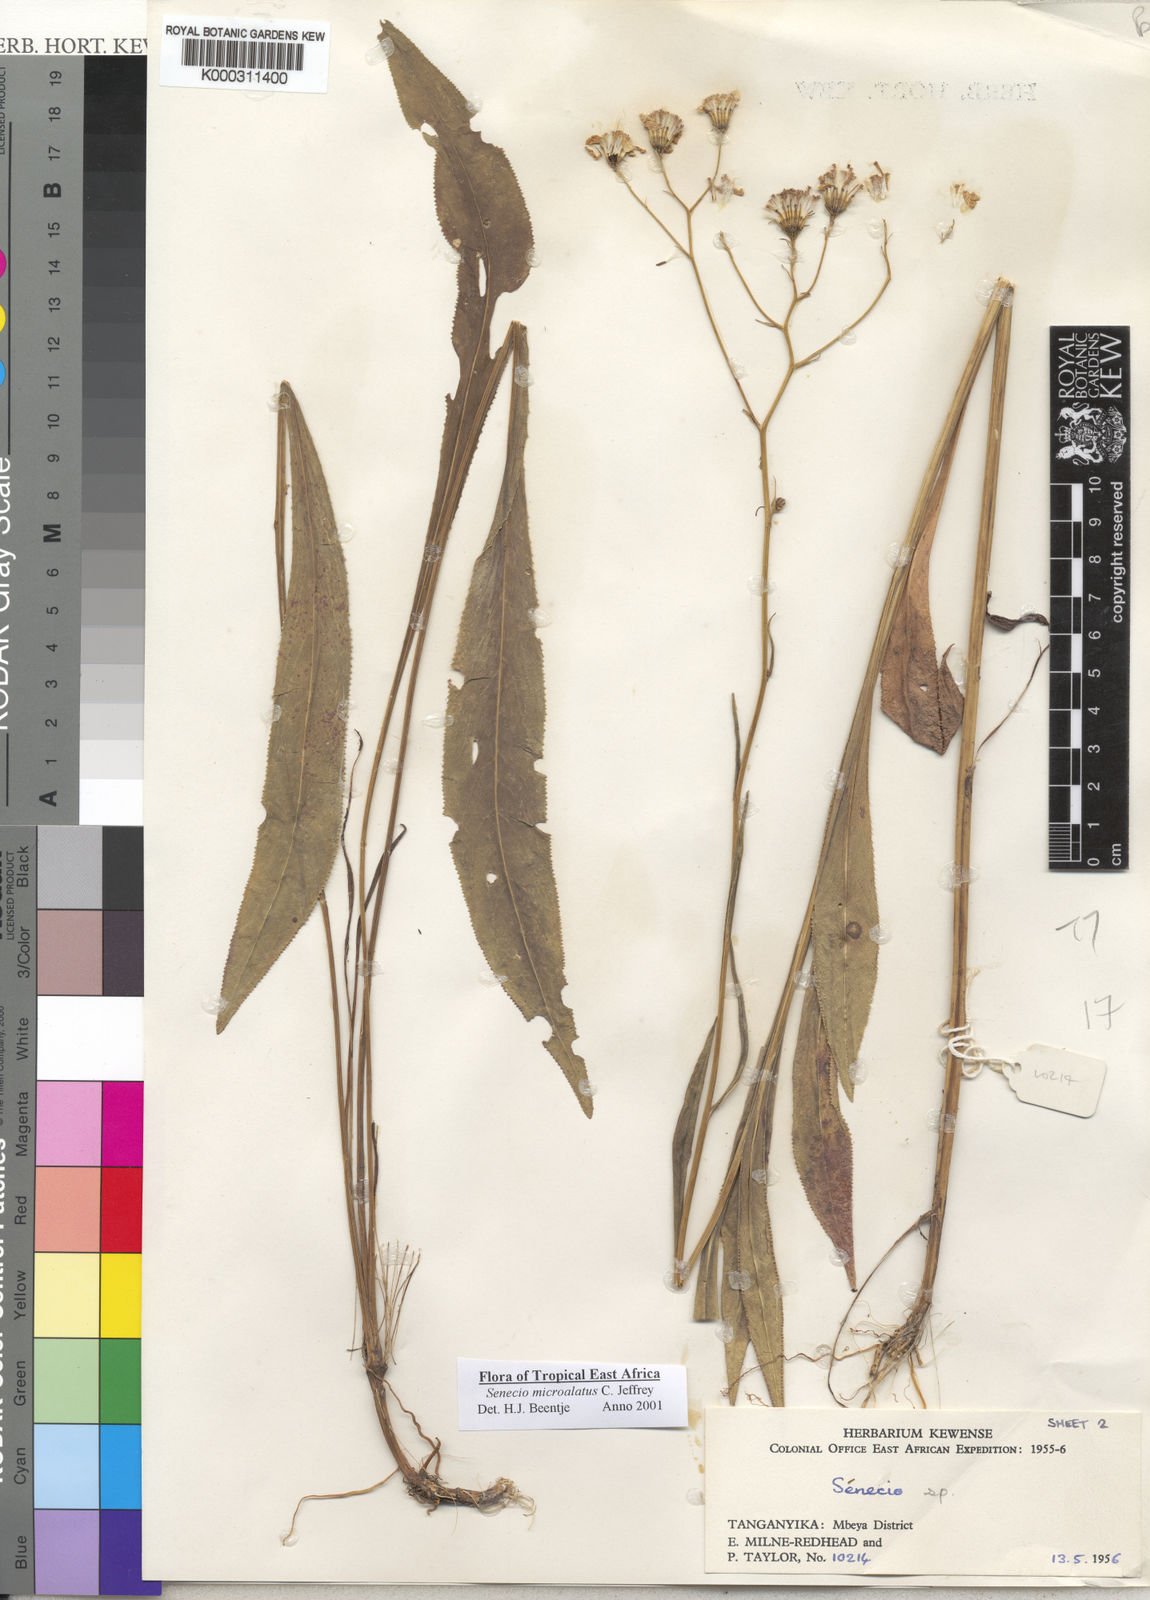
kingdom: Plantae
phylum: Tracheophyta
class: Magnoliopsida
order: Asterales
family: Asteraceae
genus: Senecio
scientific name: Senecio microalatus
